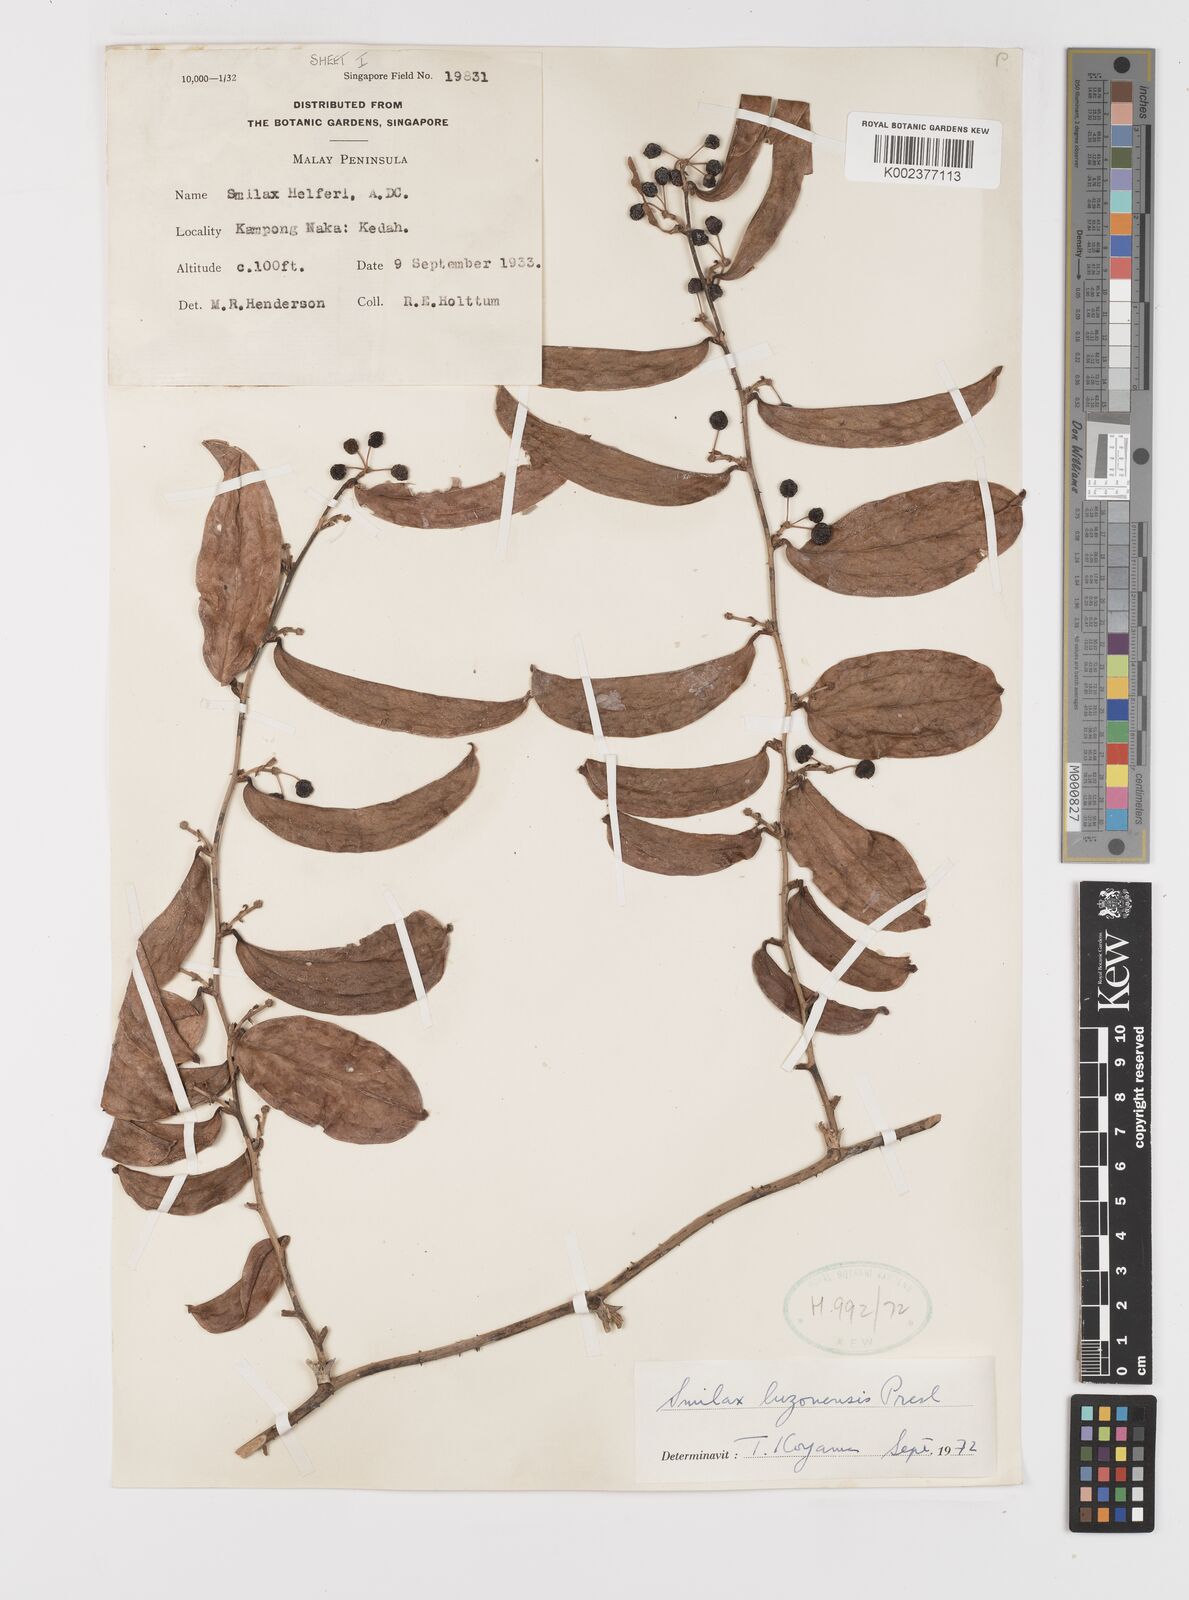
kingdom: Plantae
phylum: Tracheophyta
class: Liliopsida
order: Liliales
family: Smilacaceae
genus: Smilax
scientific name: Smilax luzonensis
